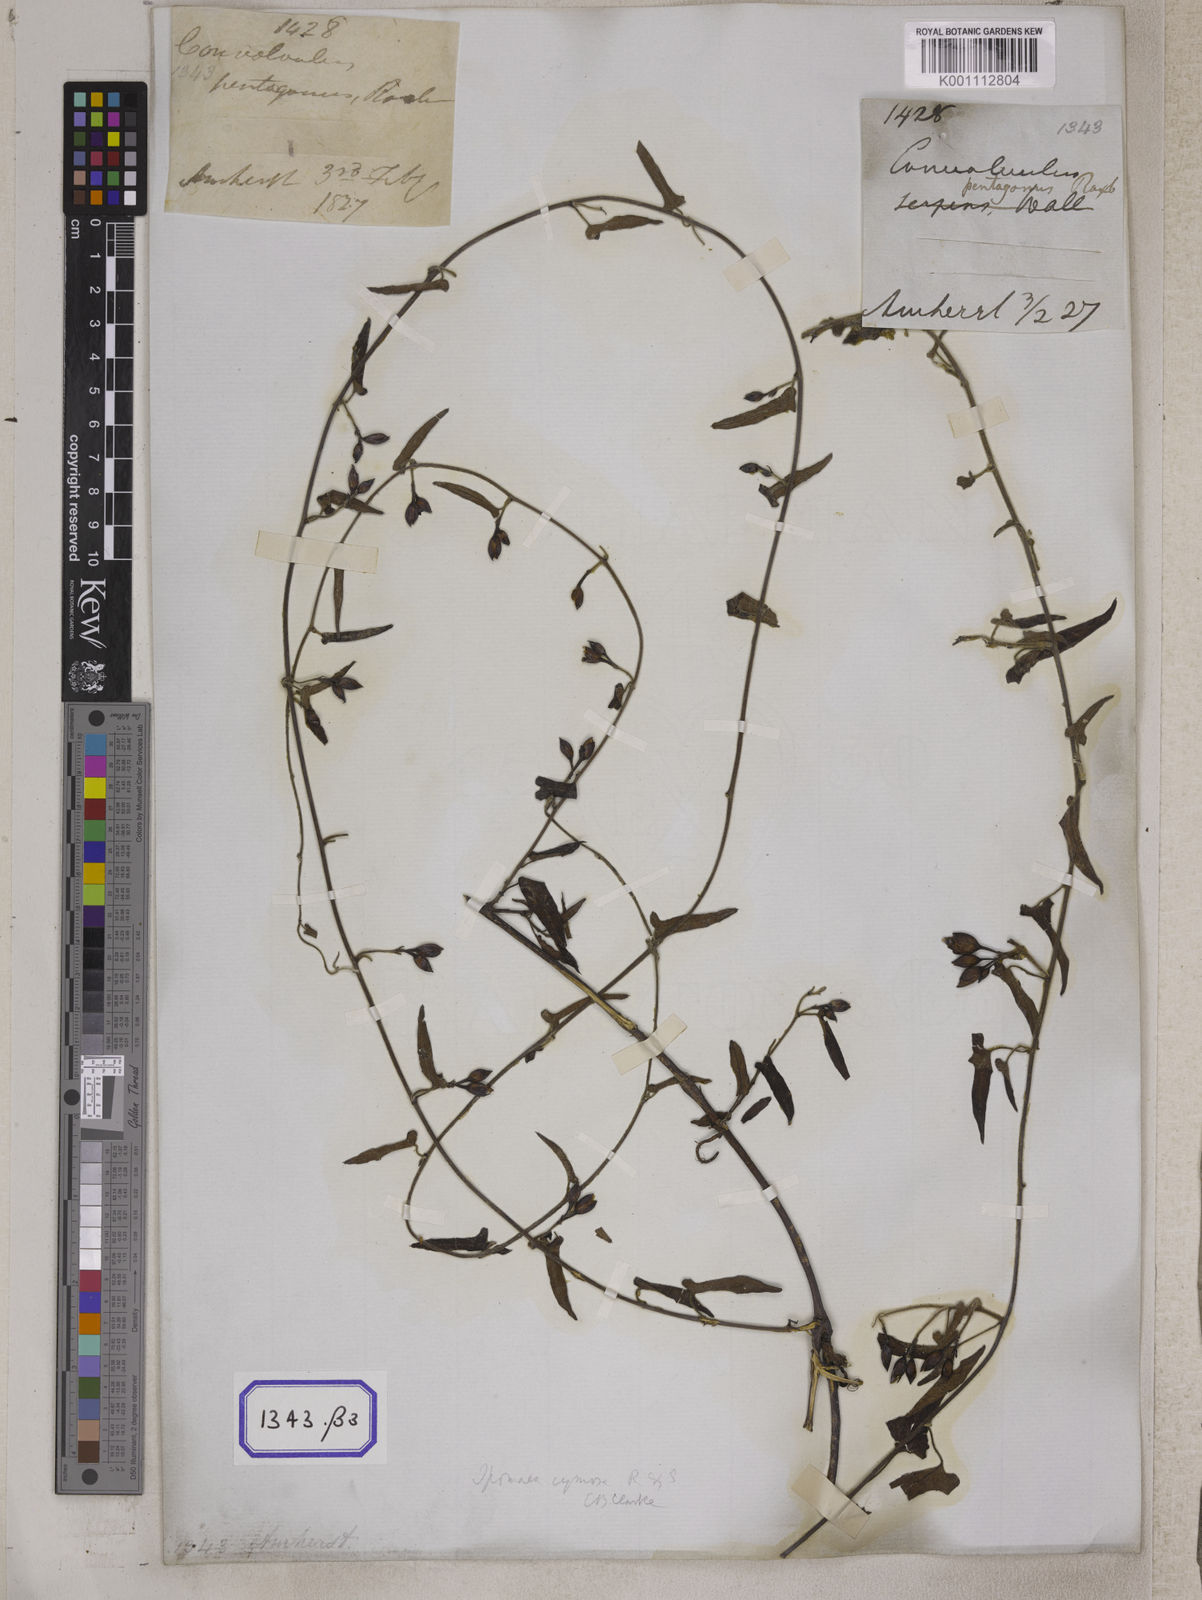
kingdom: Plantae
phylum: Tracheophyta
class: Magnoliopsida
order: Solanales
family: Convolvulaceae
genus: Convolvulus
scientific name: Convolvulus
